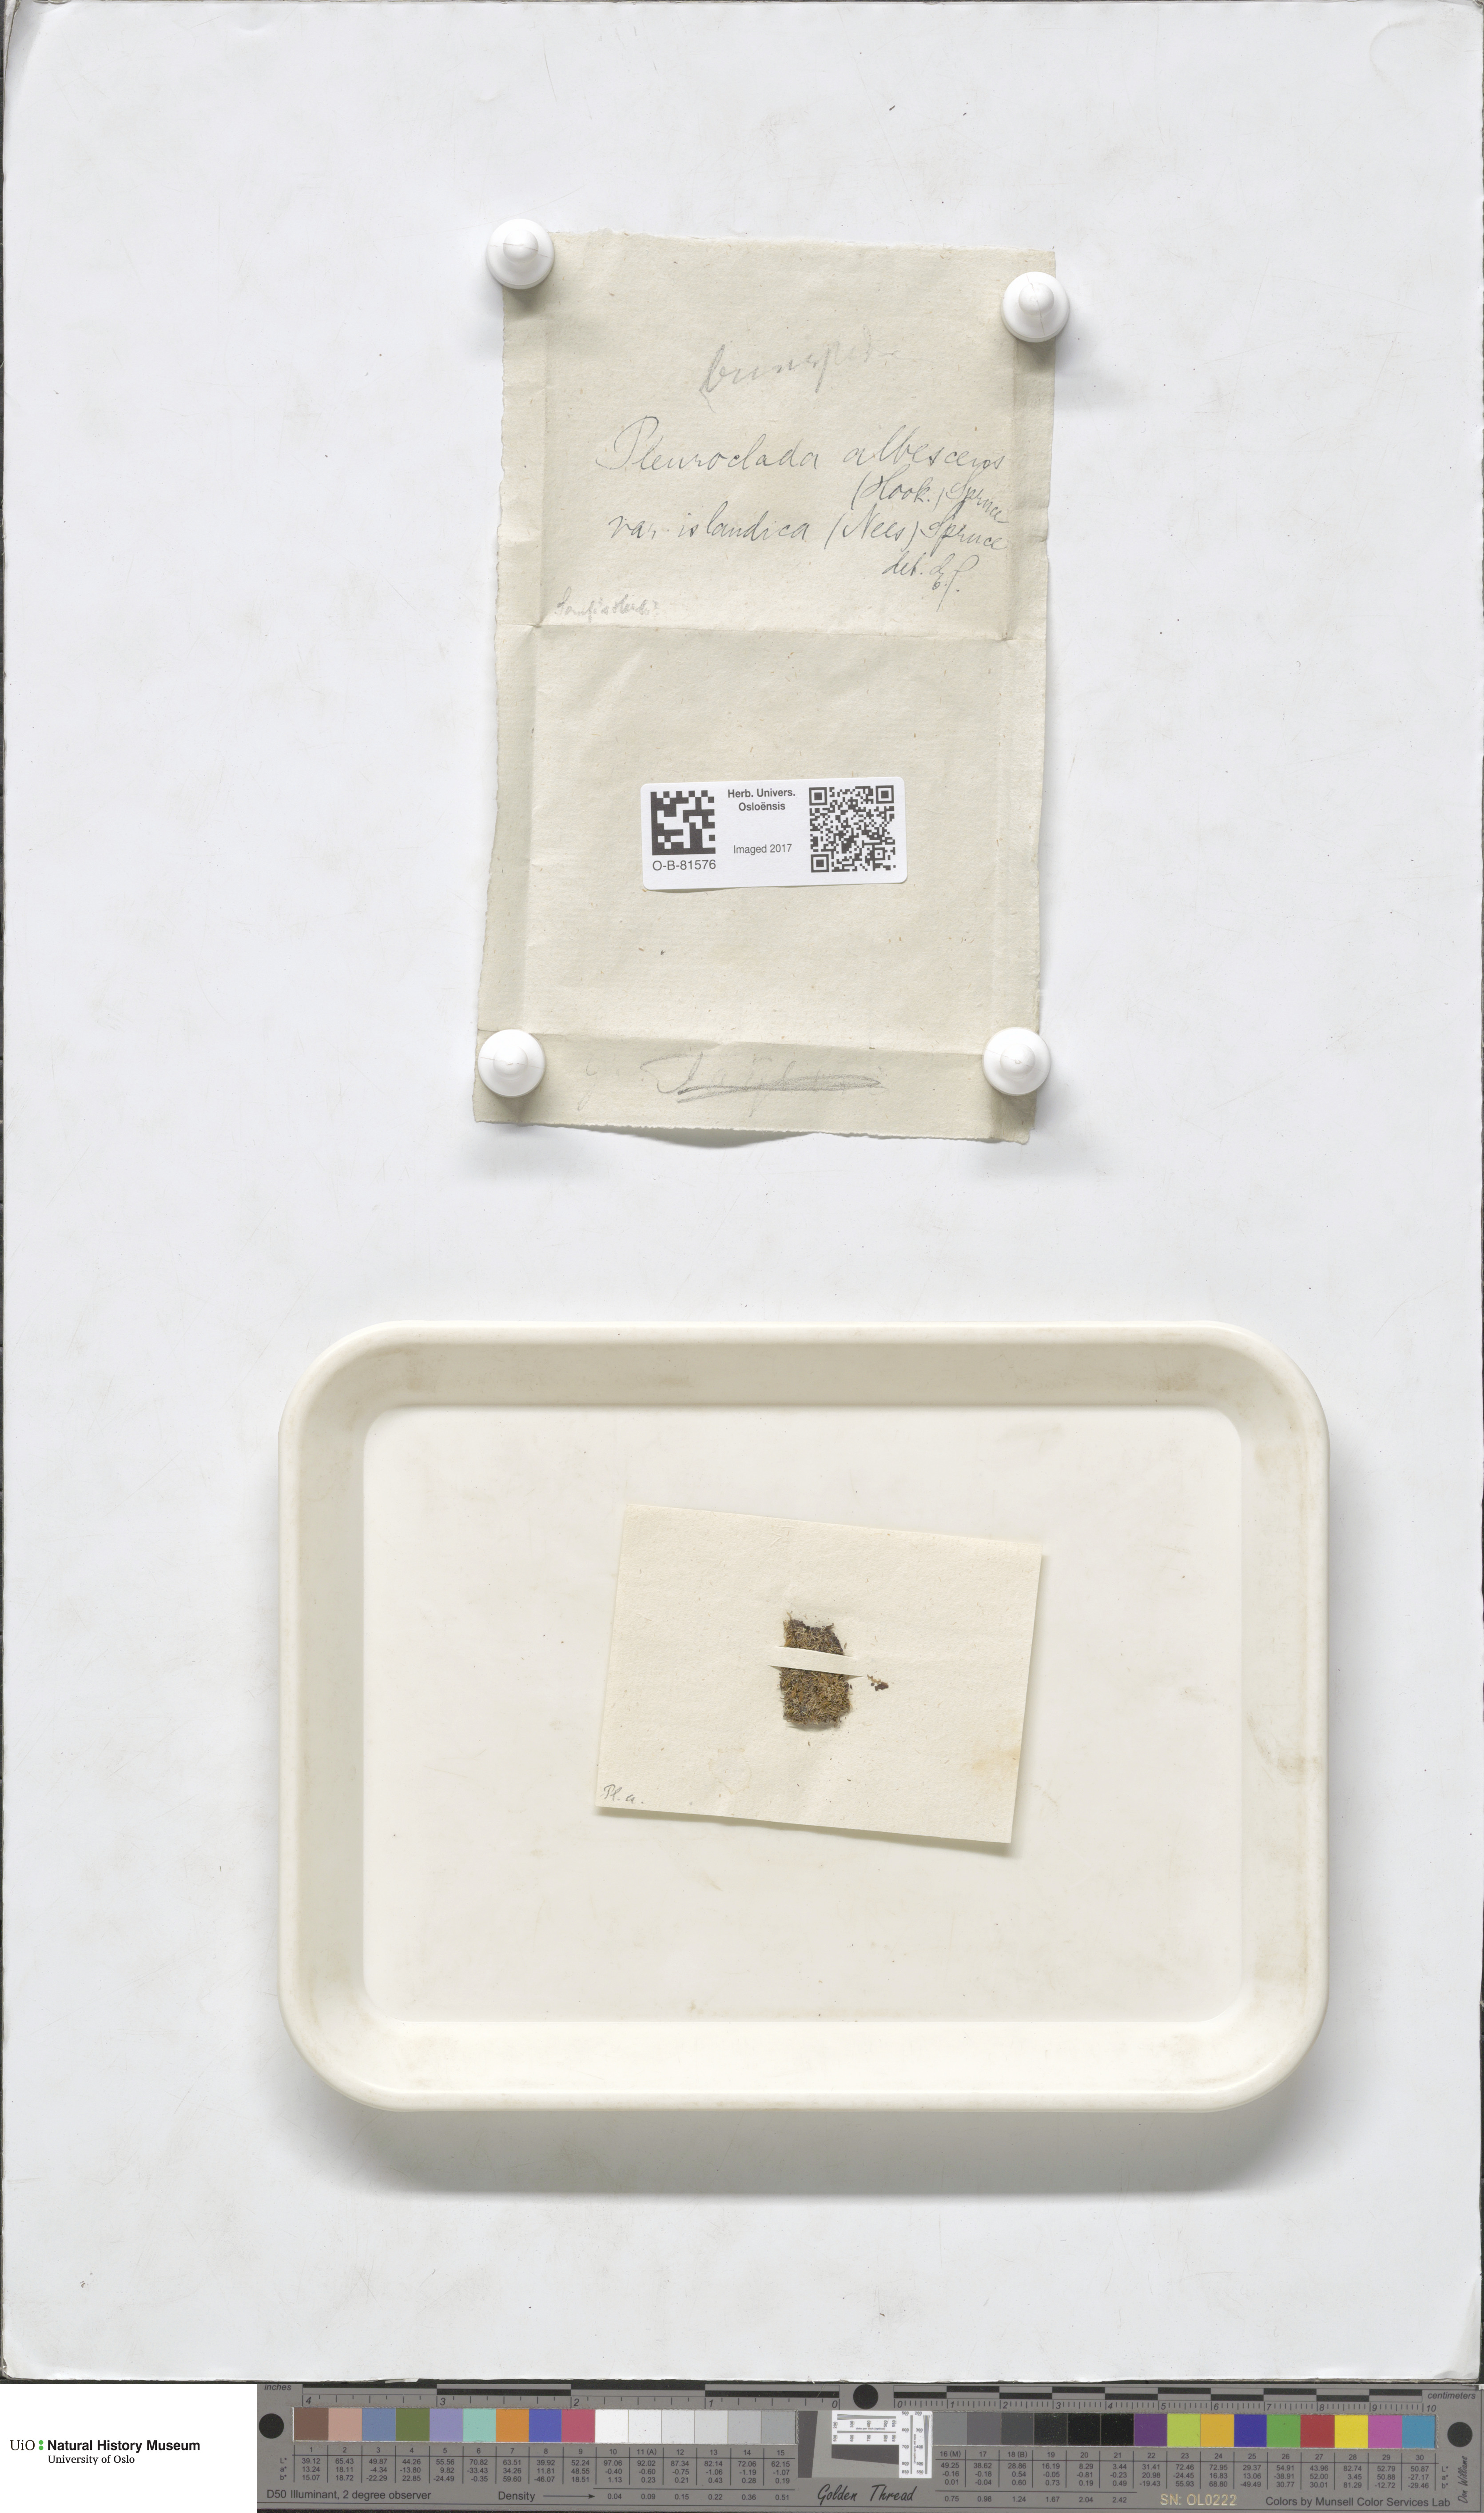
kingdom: Plantae
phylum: Marchantiophyta
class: Jungermanniopsida
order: Jungermanniales
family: Cephaloziaceae
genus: Fuscocephaloziopsis
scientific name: Fuscocephaloziopsis albescens
